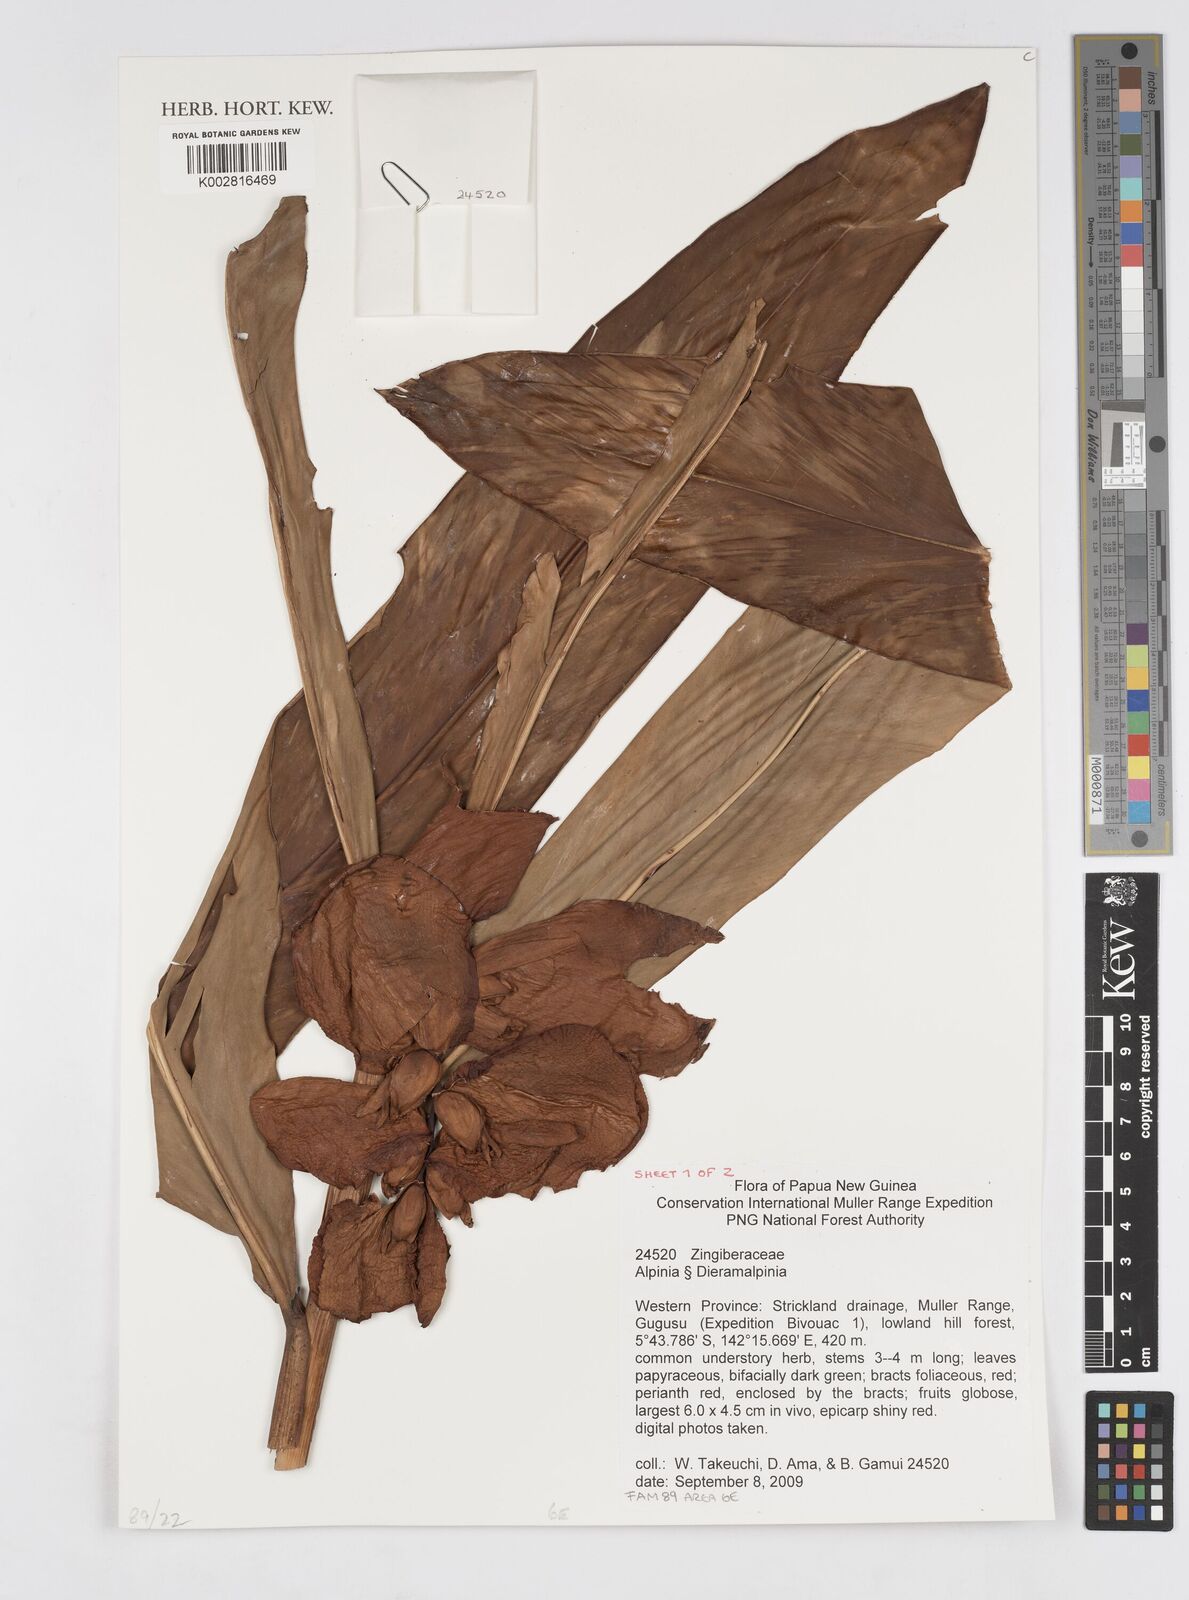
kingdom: Plantae
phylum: Tracheophyta
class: Liliopsida
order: Zingiberales
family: Zingiberaceae
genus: Alpinia
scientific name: Alpinia
